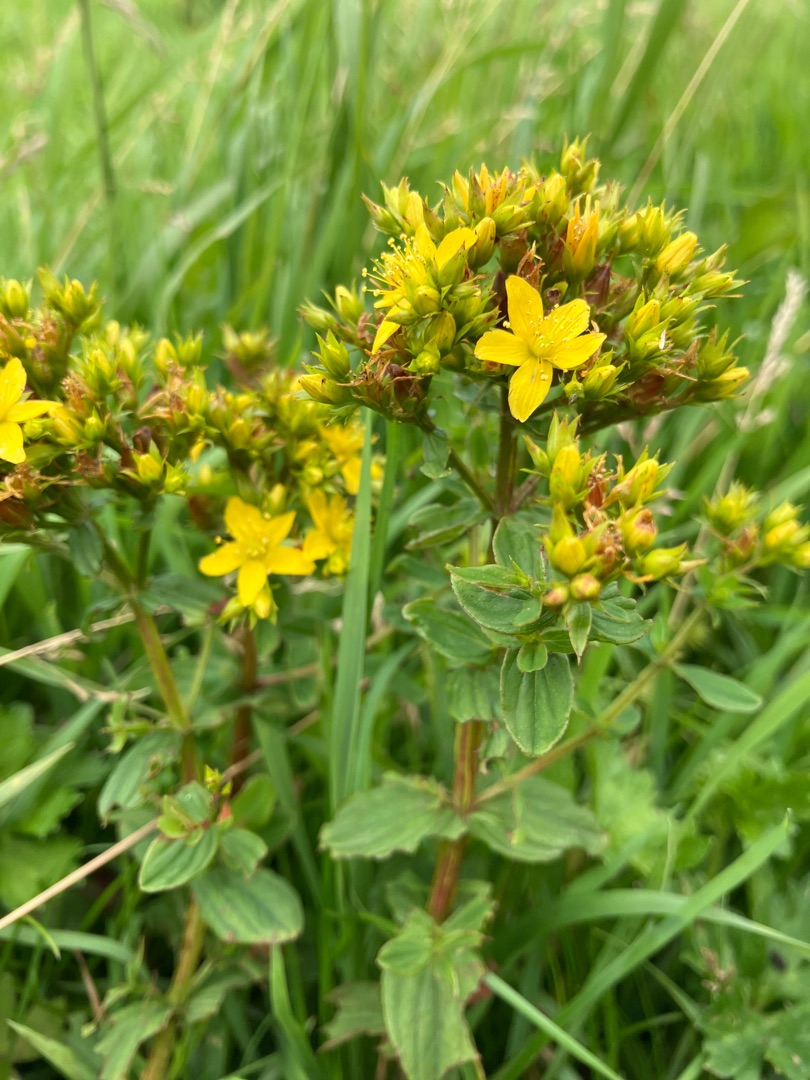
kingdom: Plantae
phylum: Tracheophyta
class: Magnoliopsida
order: Malpighiales
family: Hypericaceae
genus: Hypericum
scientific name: Hypericum tetrapterum
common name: Vinget perikon
